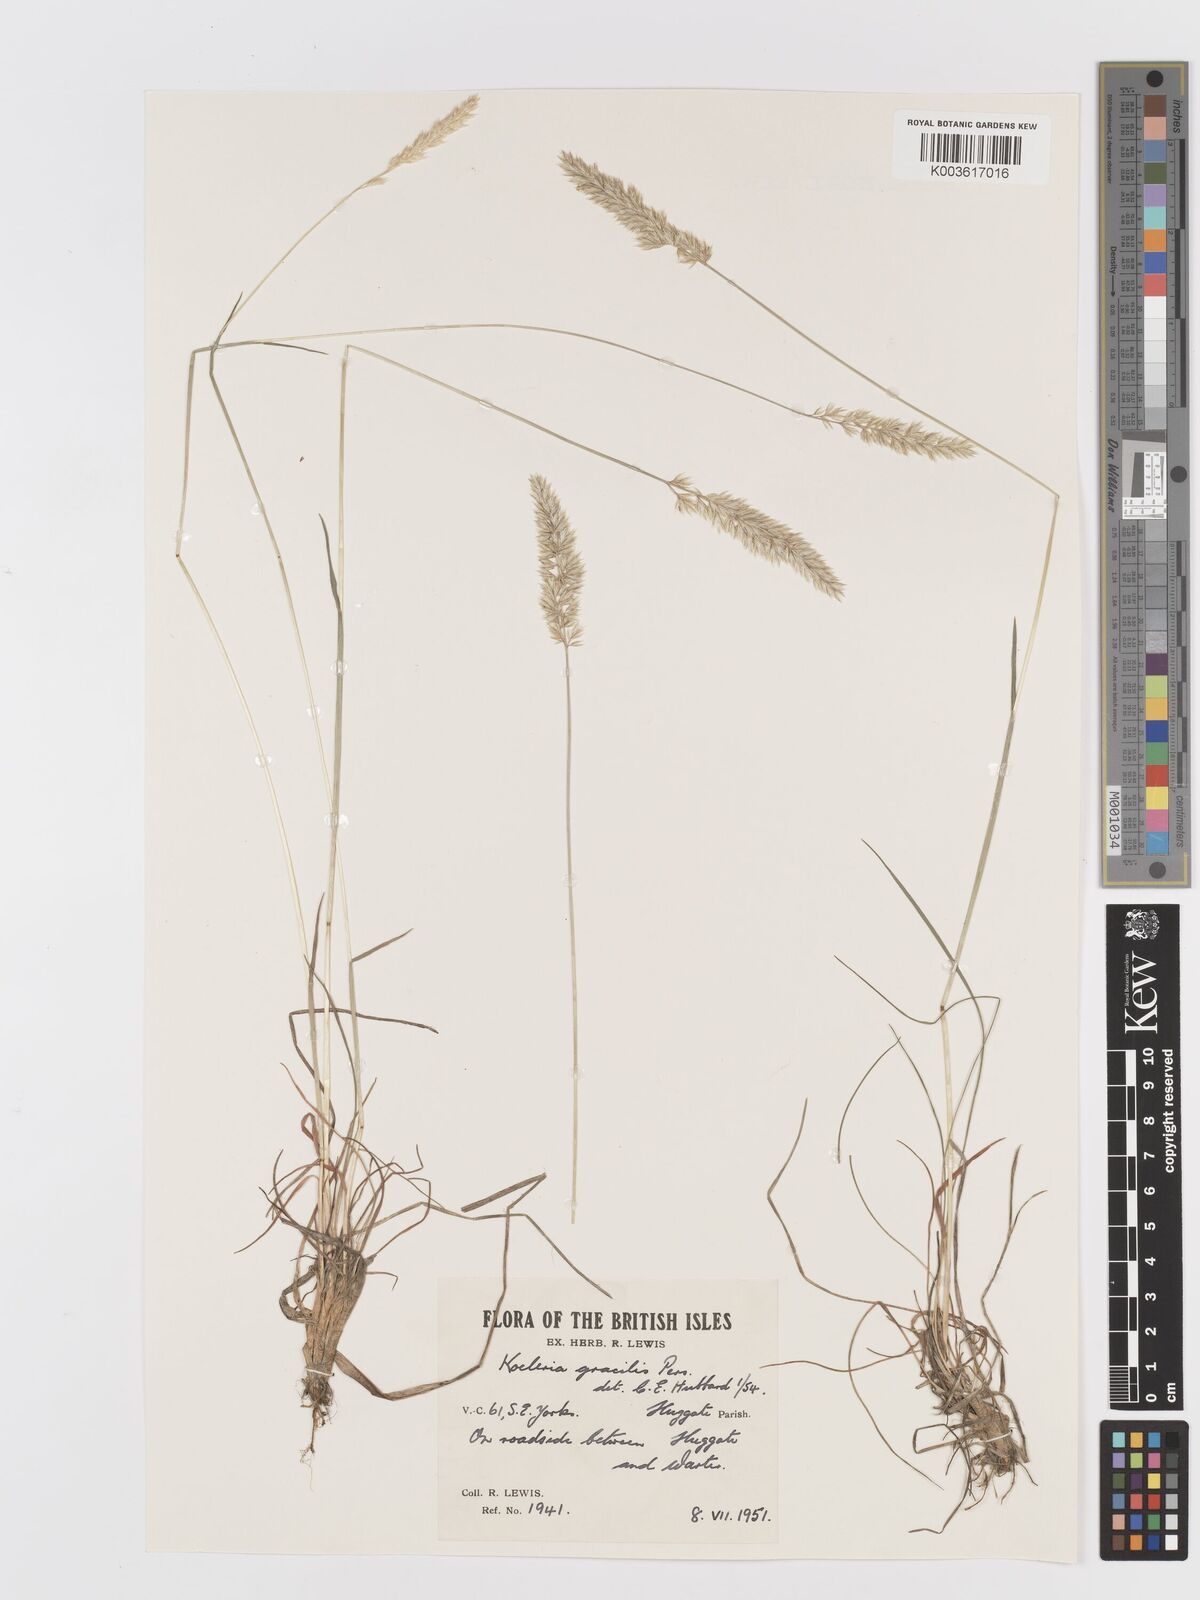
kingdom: Plantae
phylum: Tracheophyta
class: Liliopsida
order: Poales
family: Poaceae
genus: Koeleria
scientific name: Koeleria nitidula
